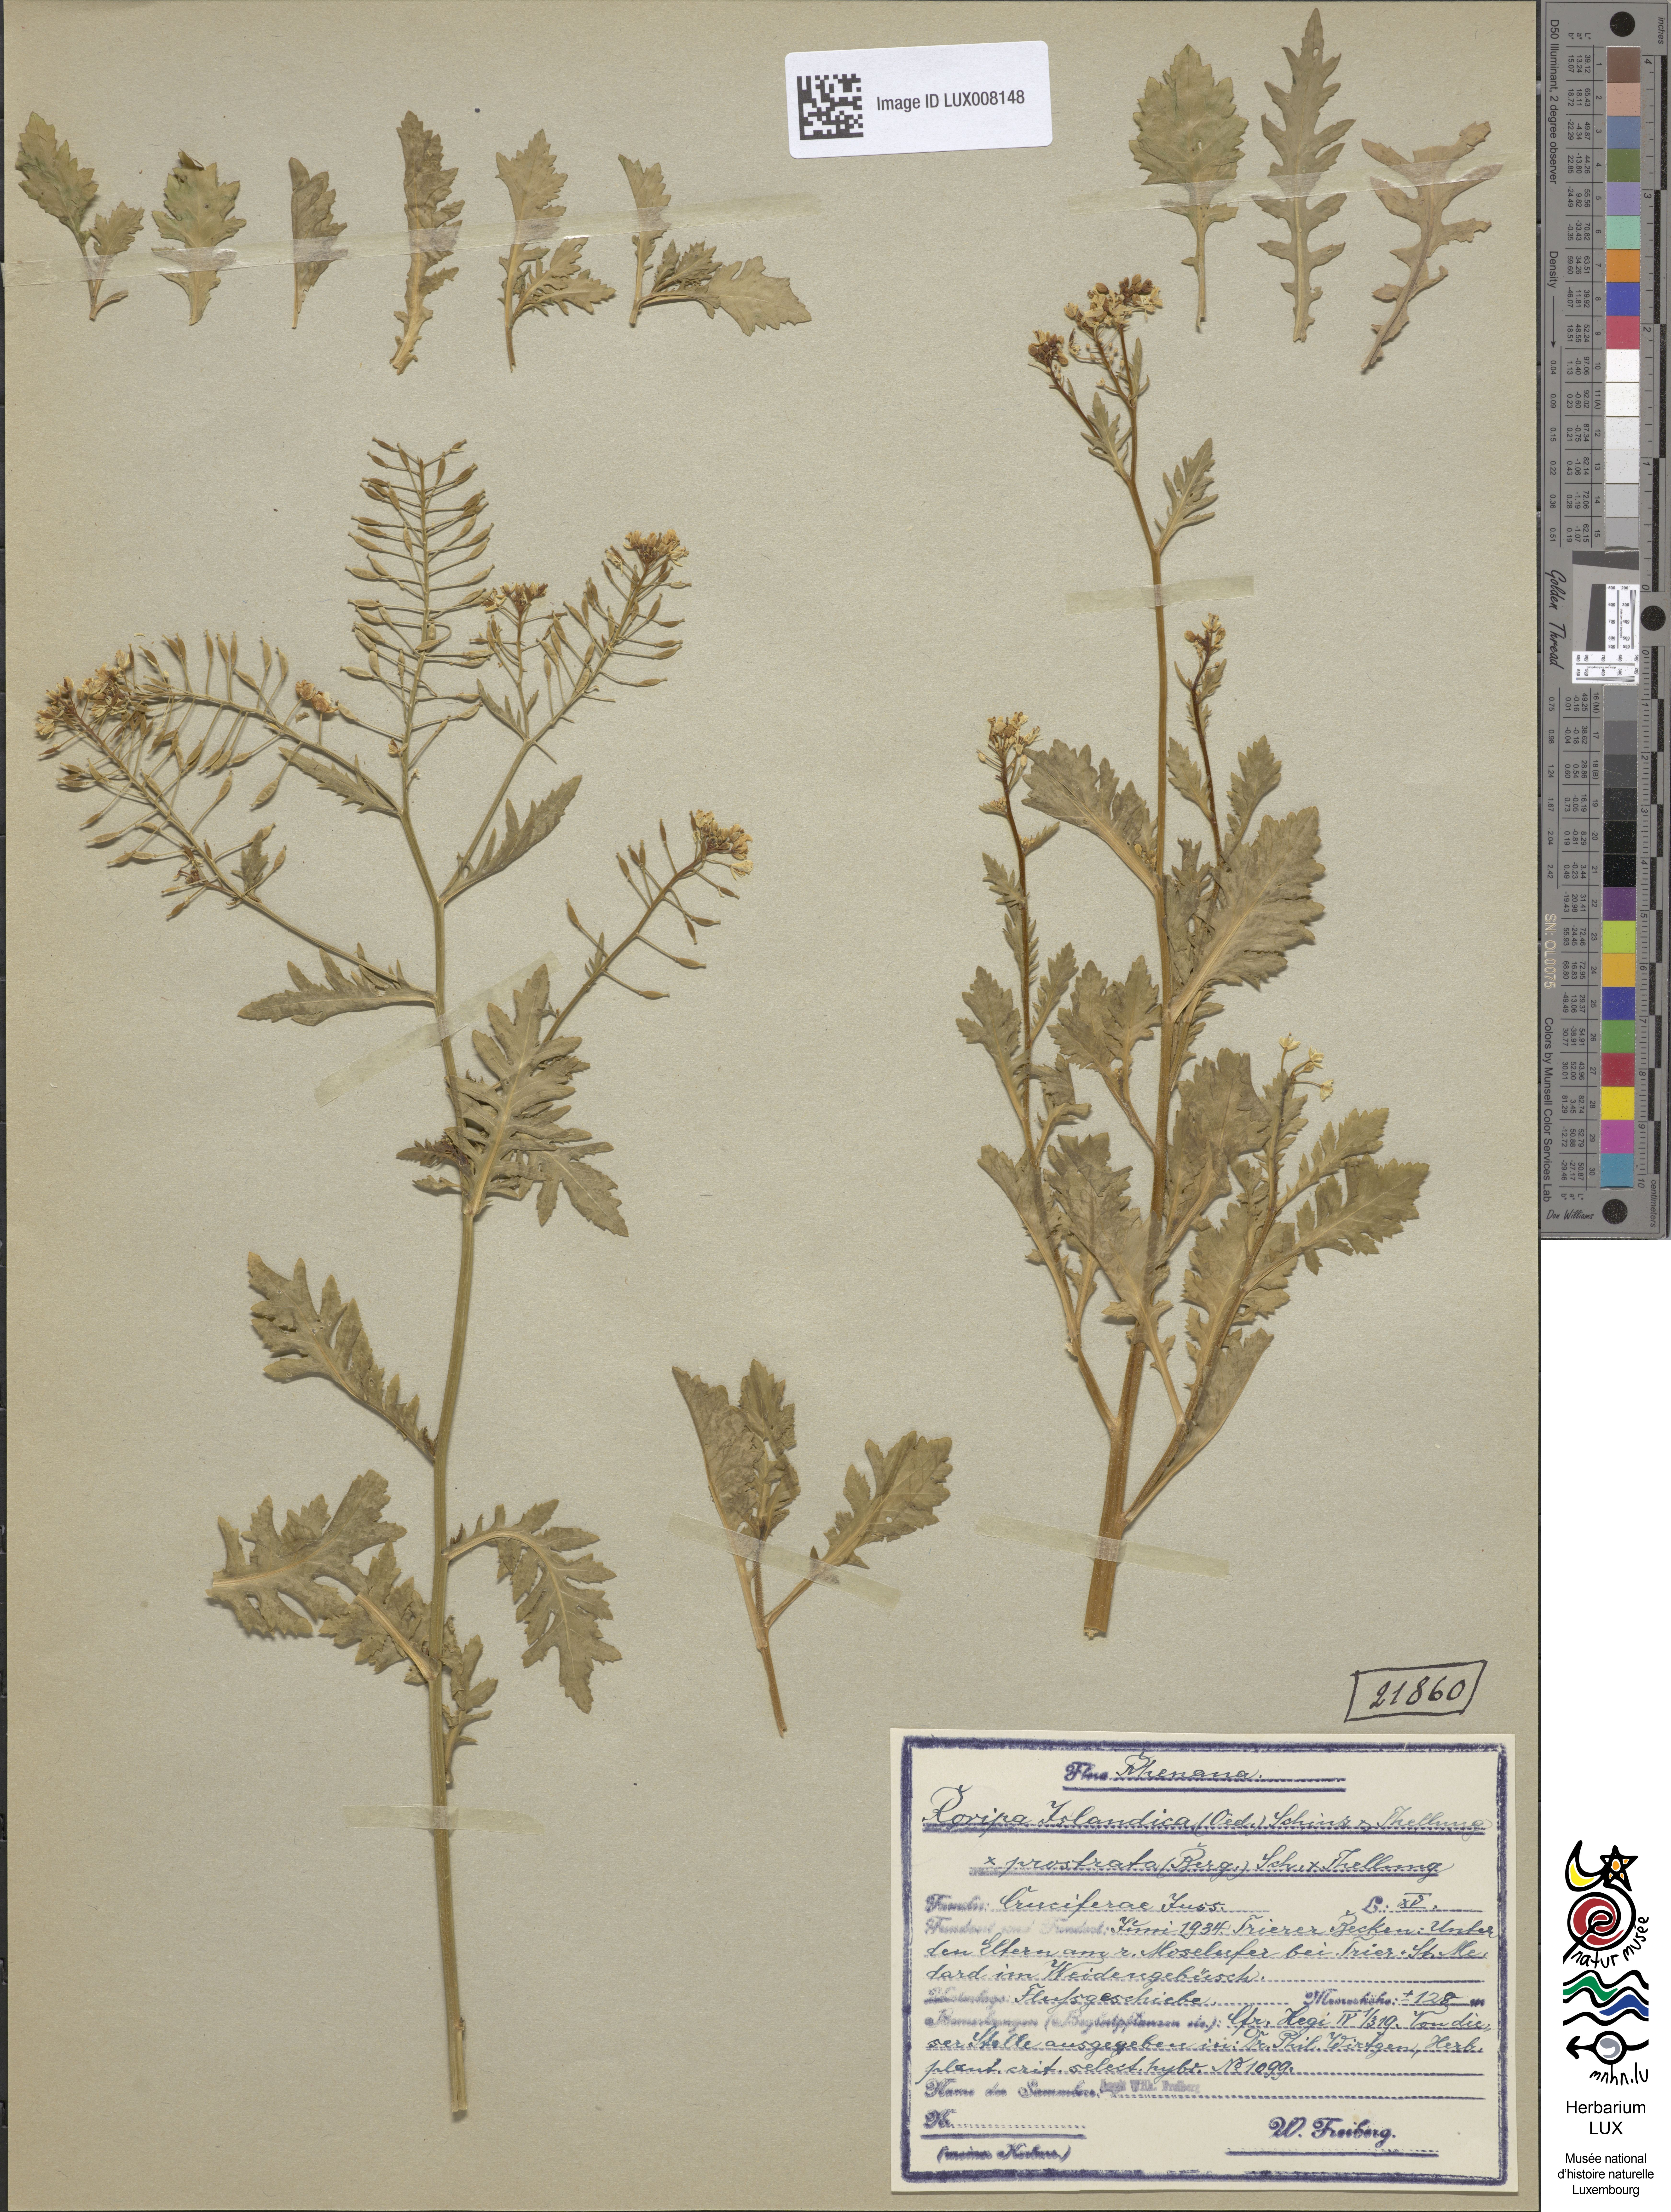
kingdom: Plantae
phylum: Tracheophyta
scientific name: Tracheophyta
